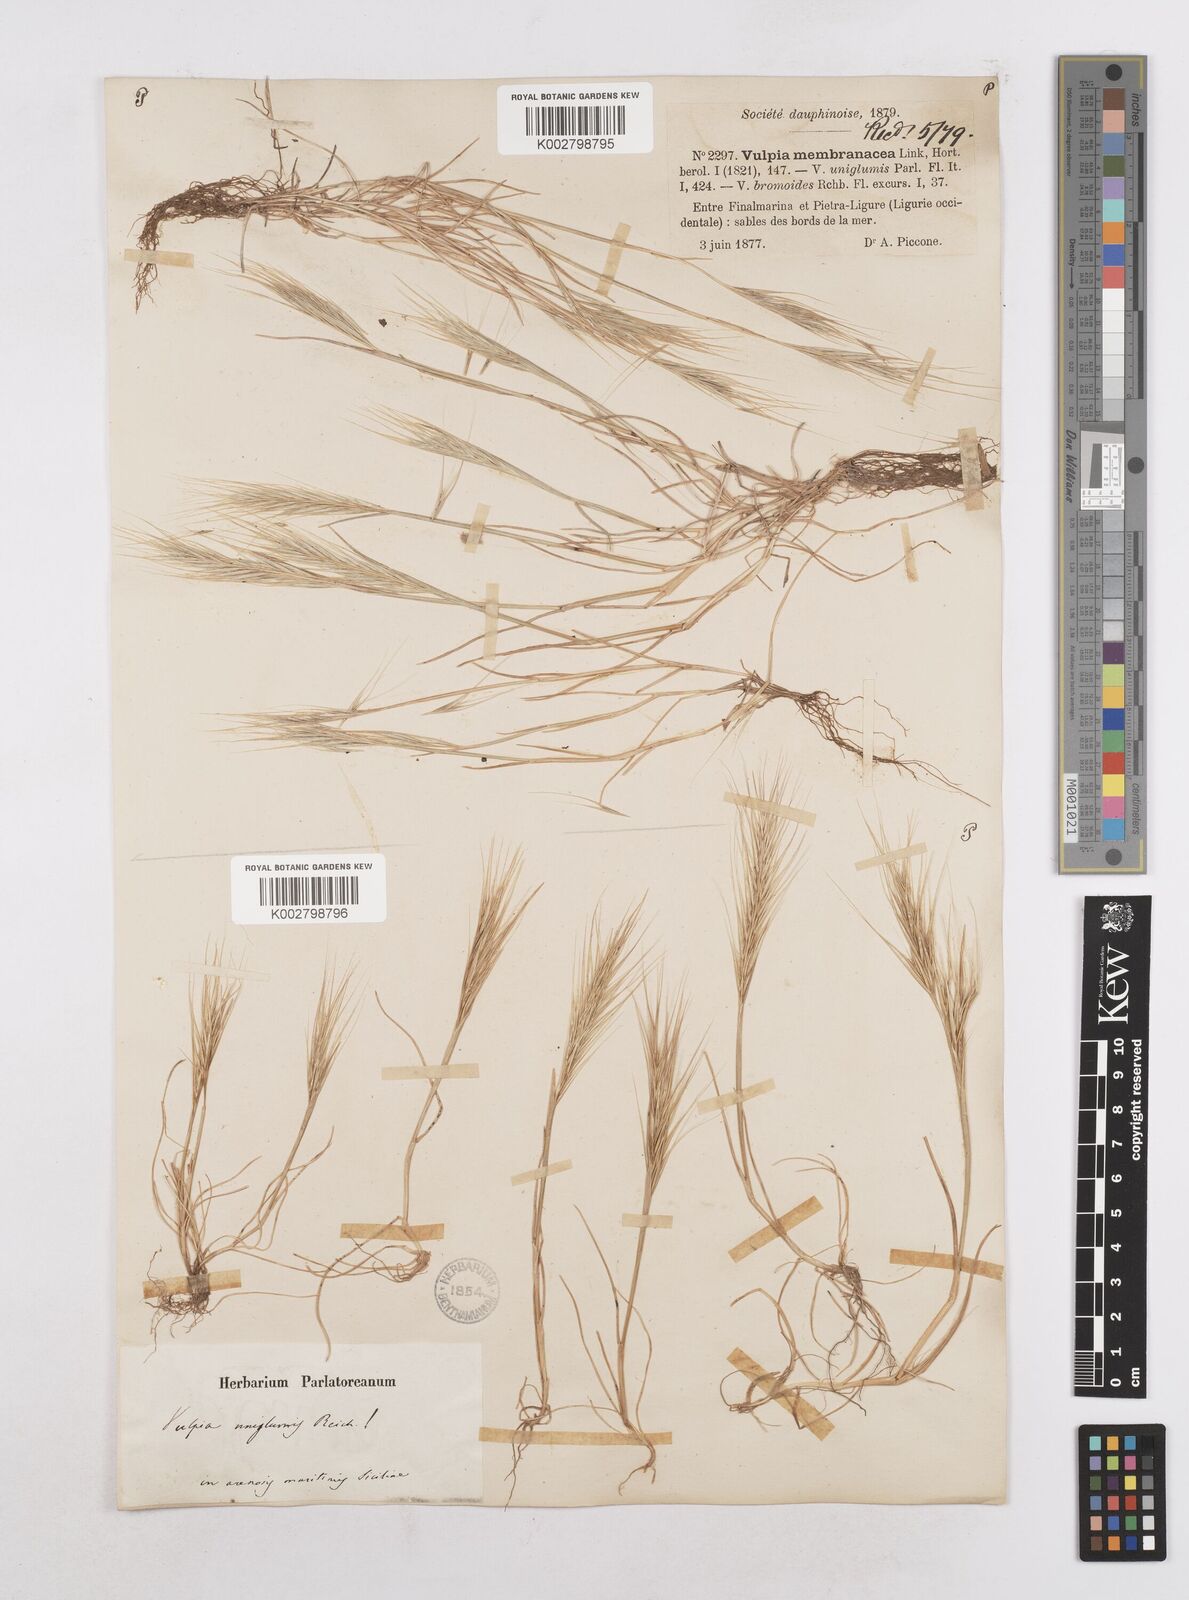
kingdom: Plantae
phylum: Tracheophyta
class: Liliopsida
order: Poales
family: Poaceae
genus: Festuca
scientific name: Festuca fasciculata
